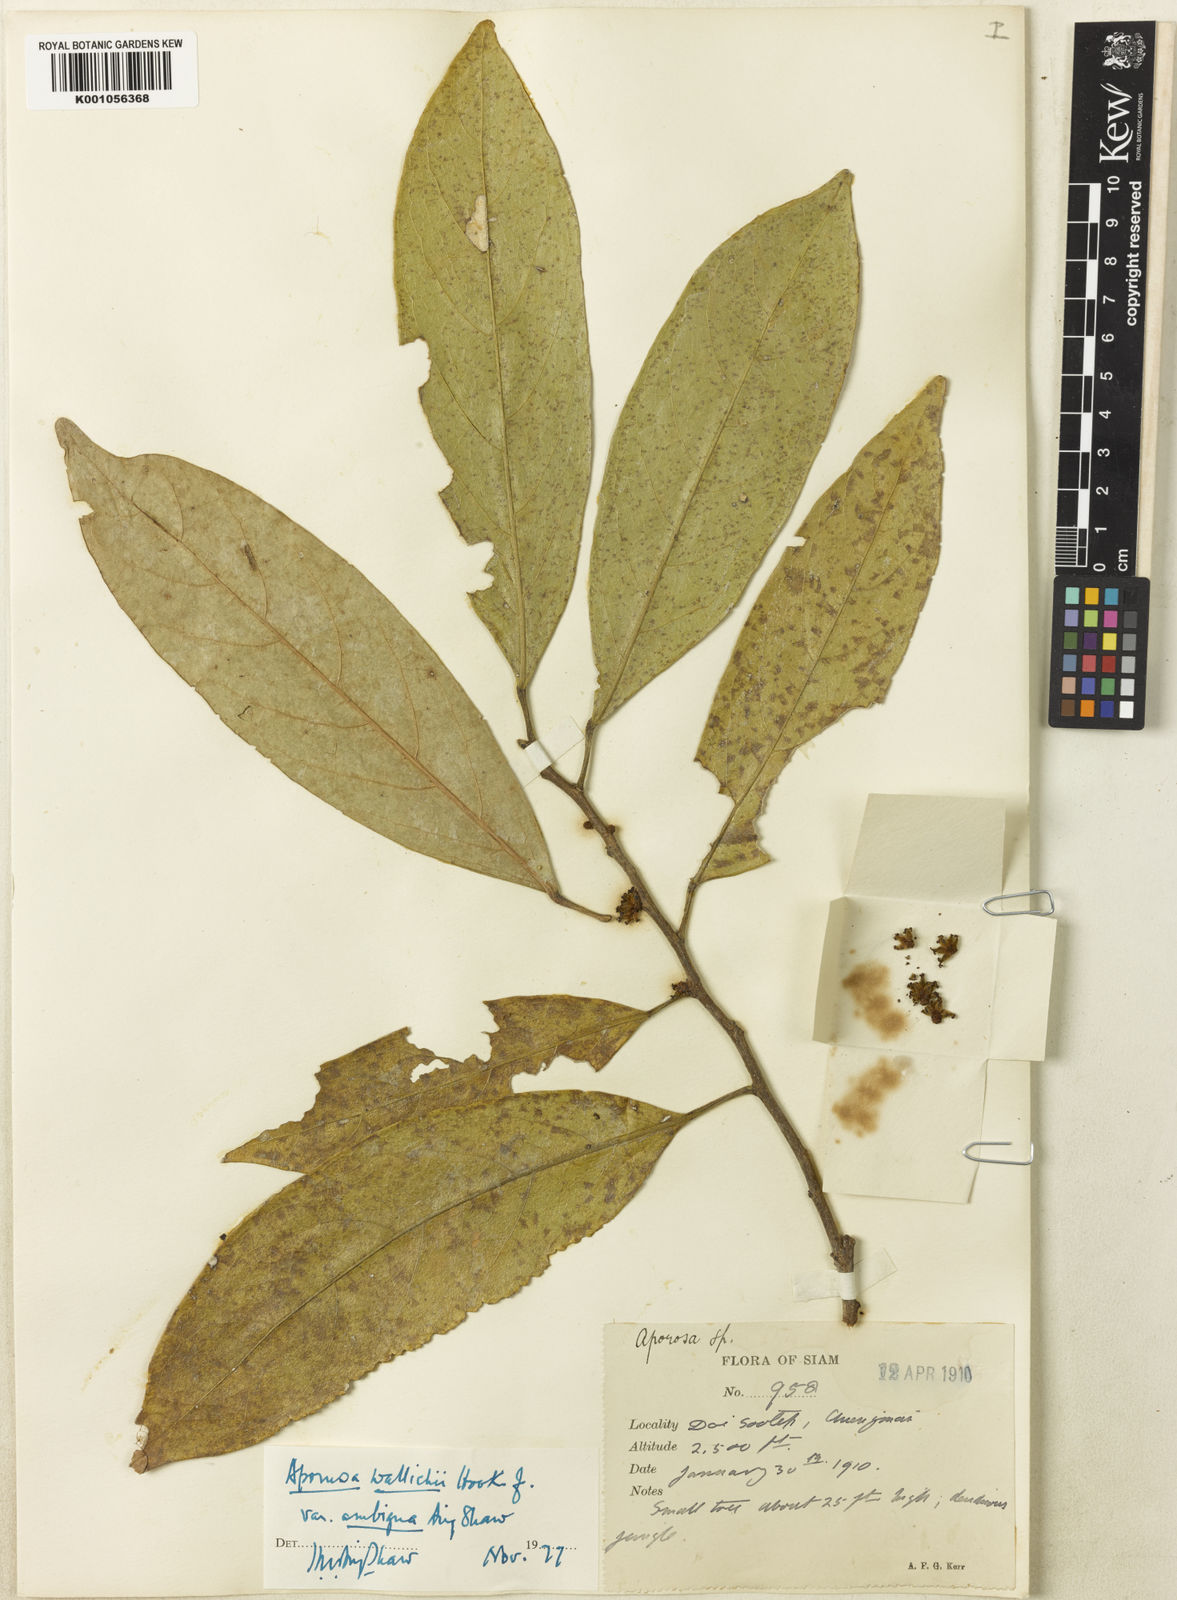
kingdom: Plantae
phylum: Tracheophyta
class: Magnoliopsida
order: Malpighiales
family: Phyllanthaceae
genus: Aporosa
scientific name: Aporosa octandra
